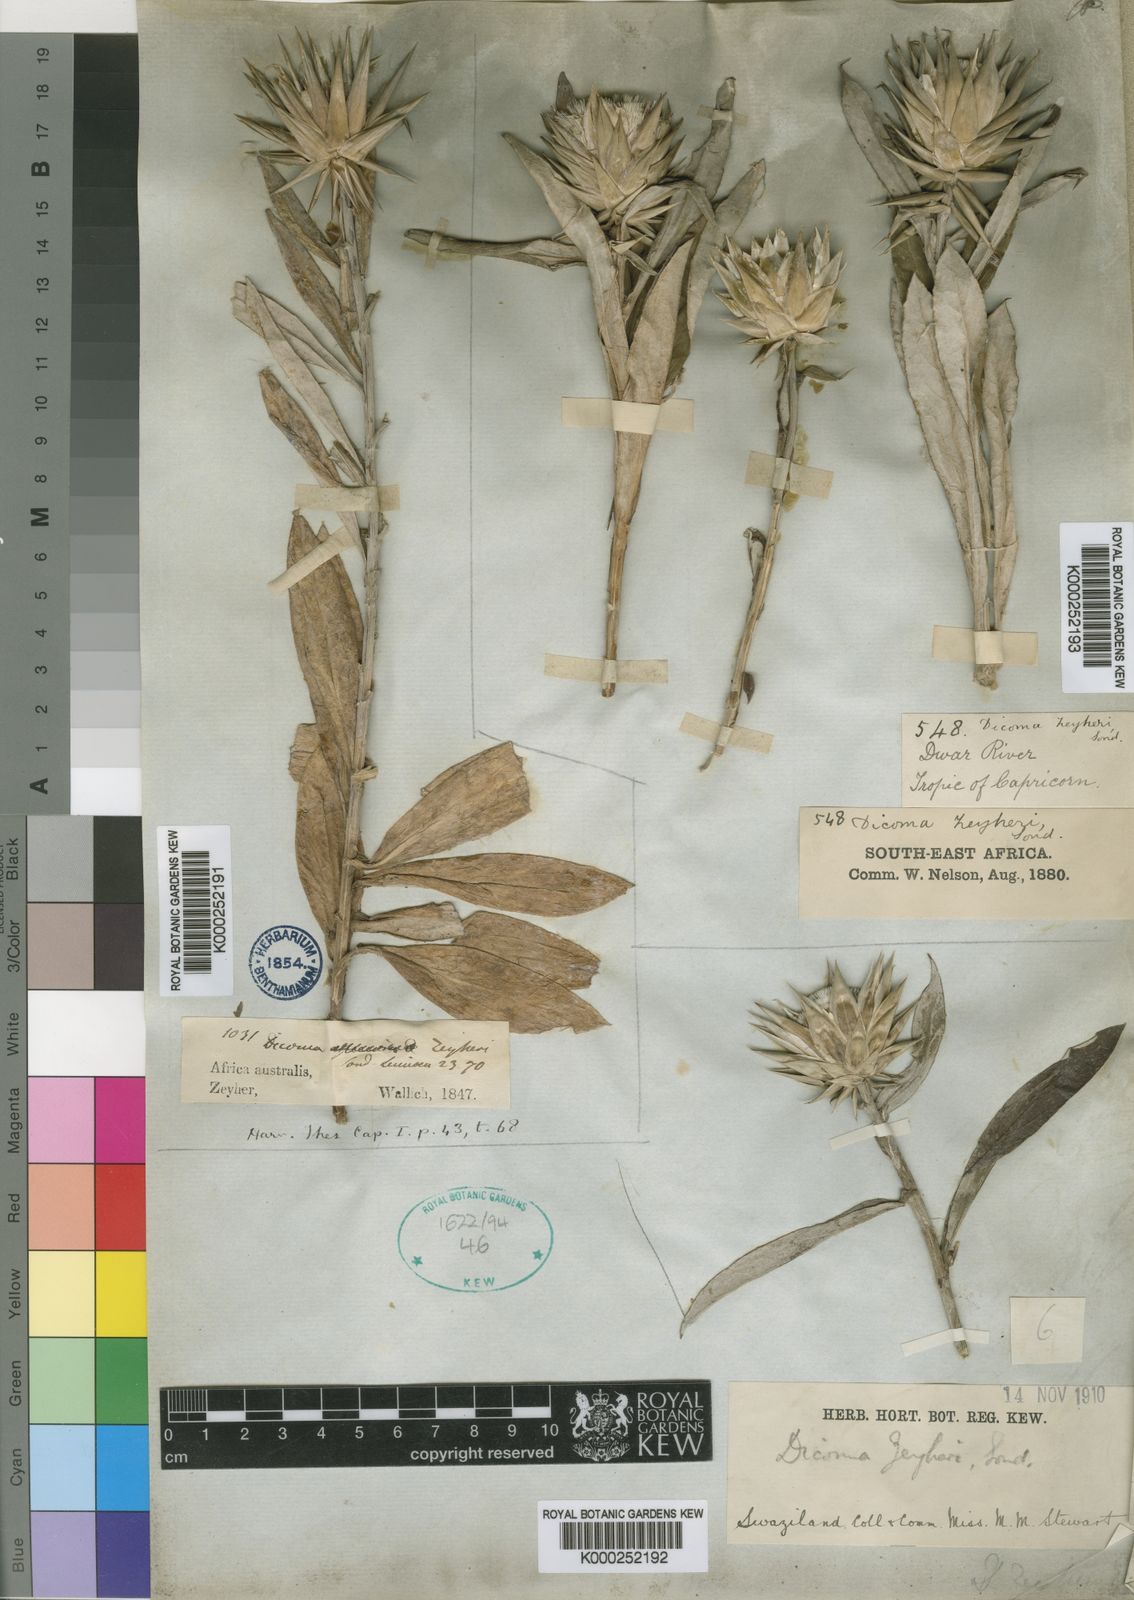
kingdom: Plantae
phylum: Tracheophyta
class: Magnoliopsida
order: Asterales
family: Asteraceae
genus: Macledium
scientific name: Macledium zeyheri
